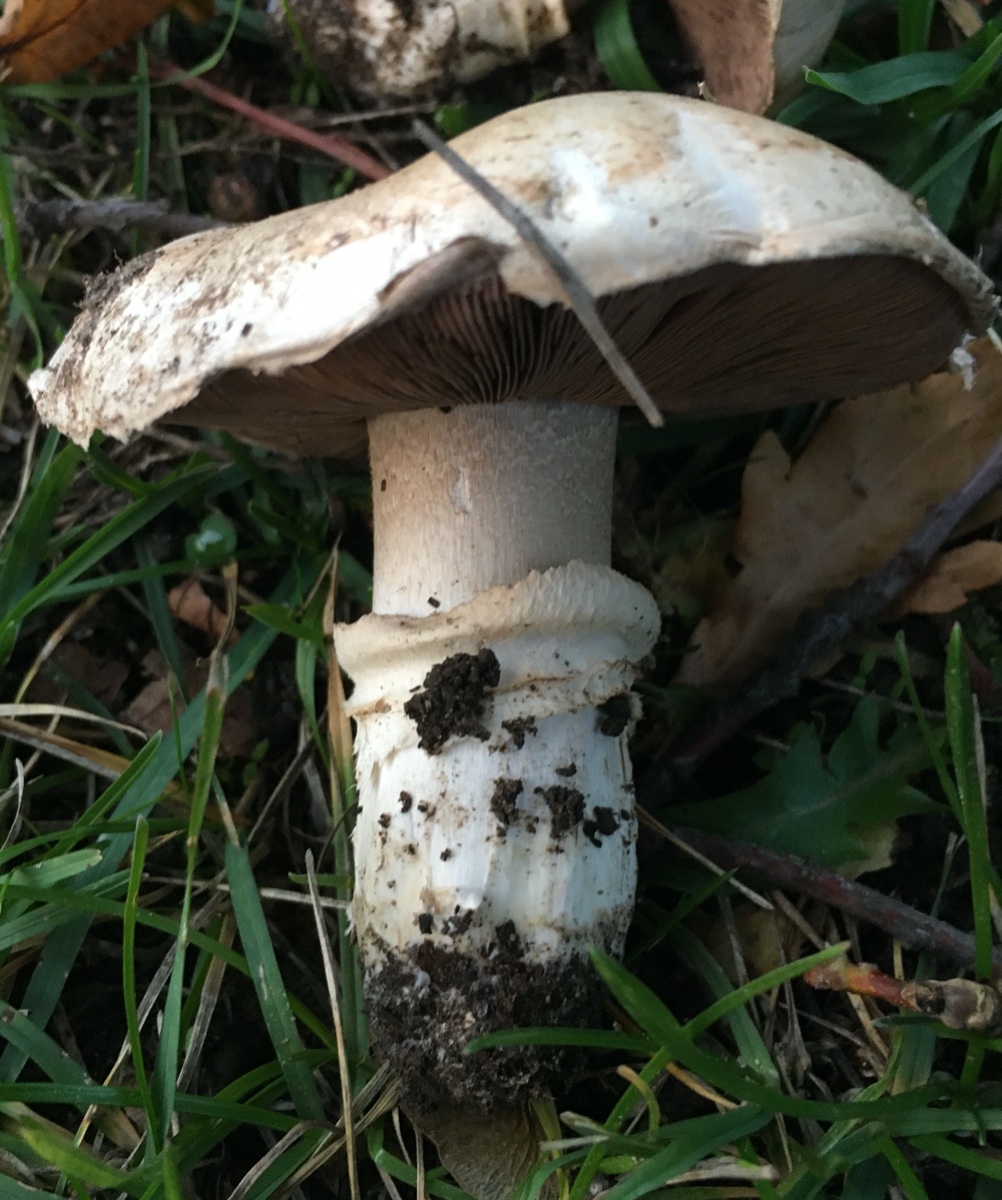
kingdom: Fungi
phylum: Basidiomycota
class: Agaricomycetes
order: Agaricales
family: Agaricaceae
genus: Agaricus
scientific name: Agaricus bitorquis
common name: vej-champignon
